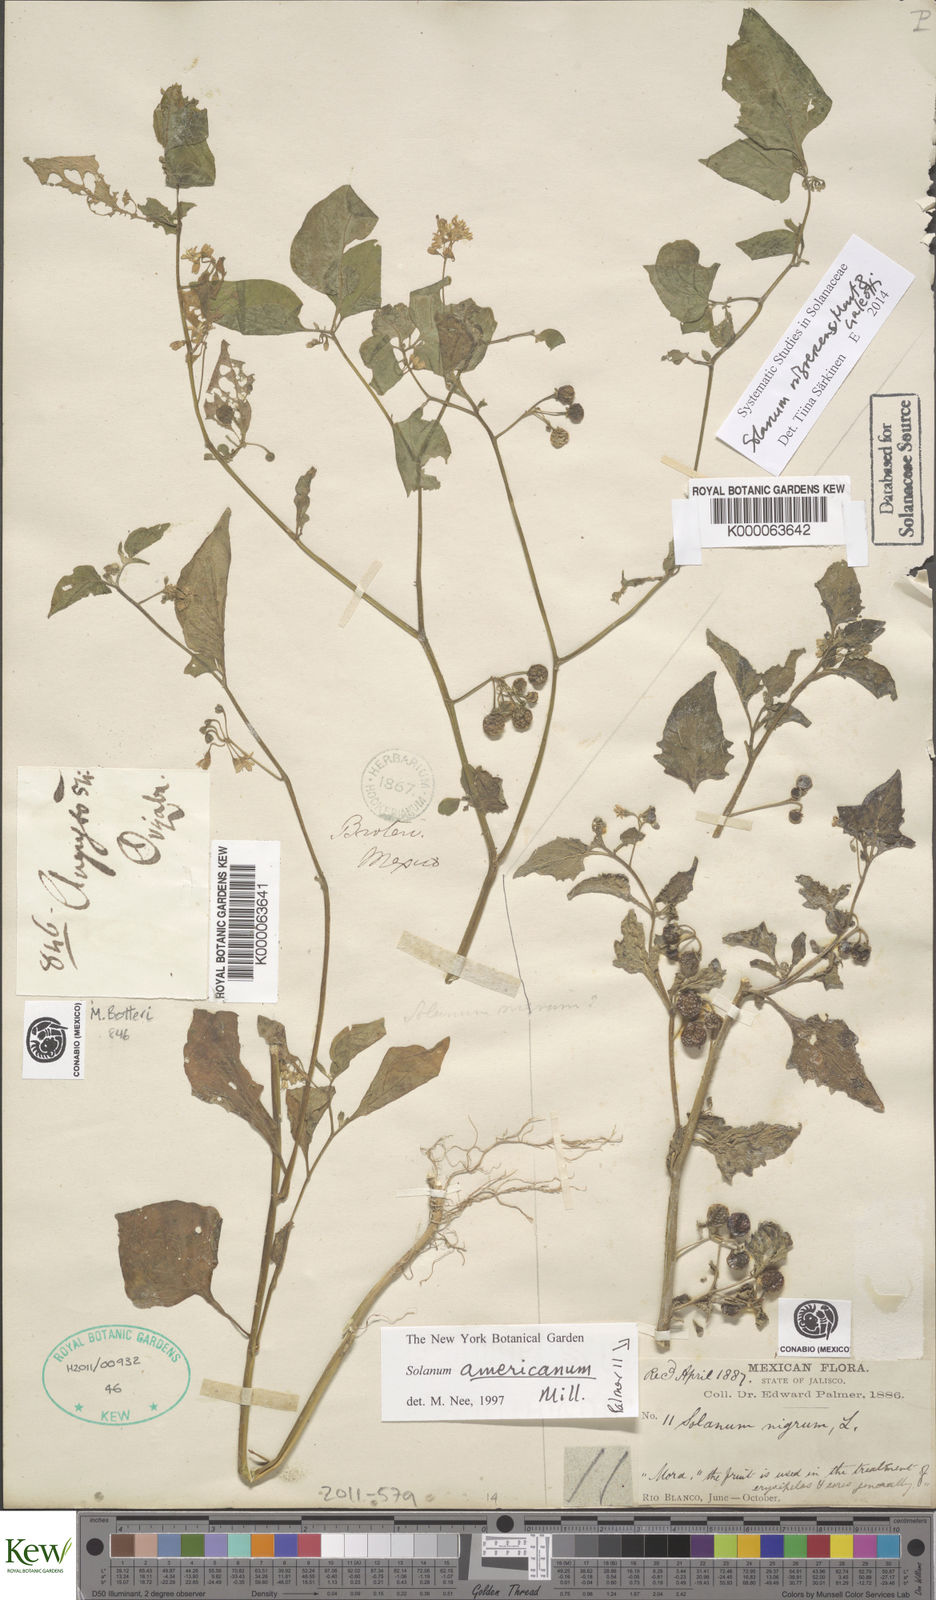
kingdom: Plantae
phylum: Tracheophyta
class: Magnoliopsida
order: Solanales
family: Solanaceae
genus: Solanum
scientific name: Solanum americanum
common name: American black nightshade
